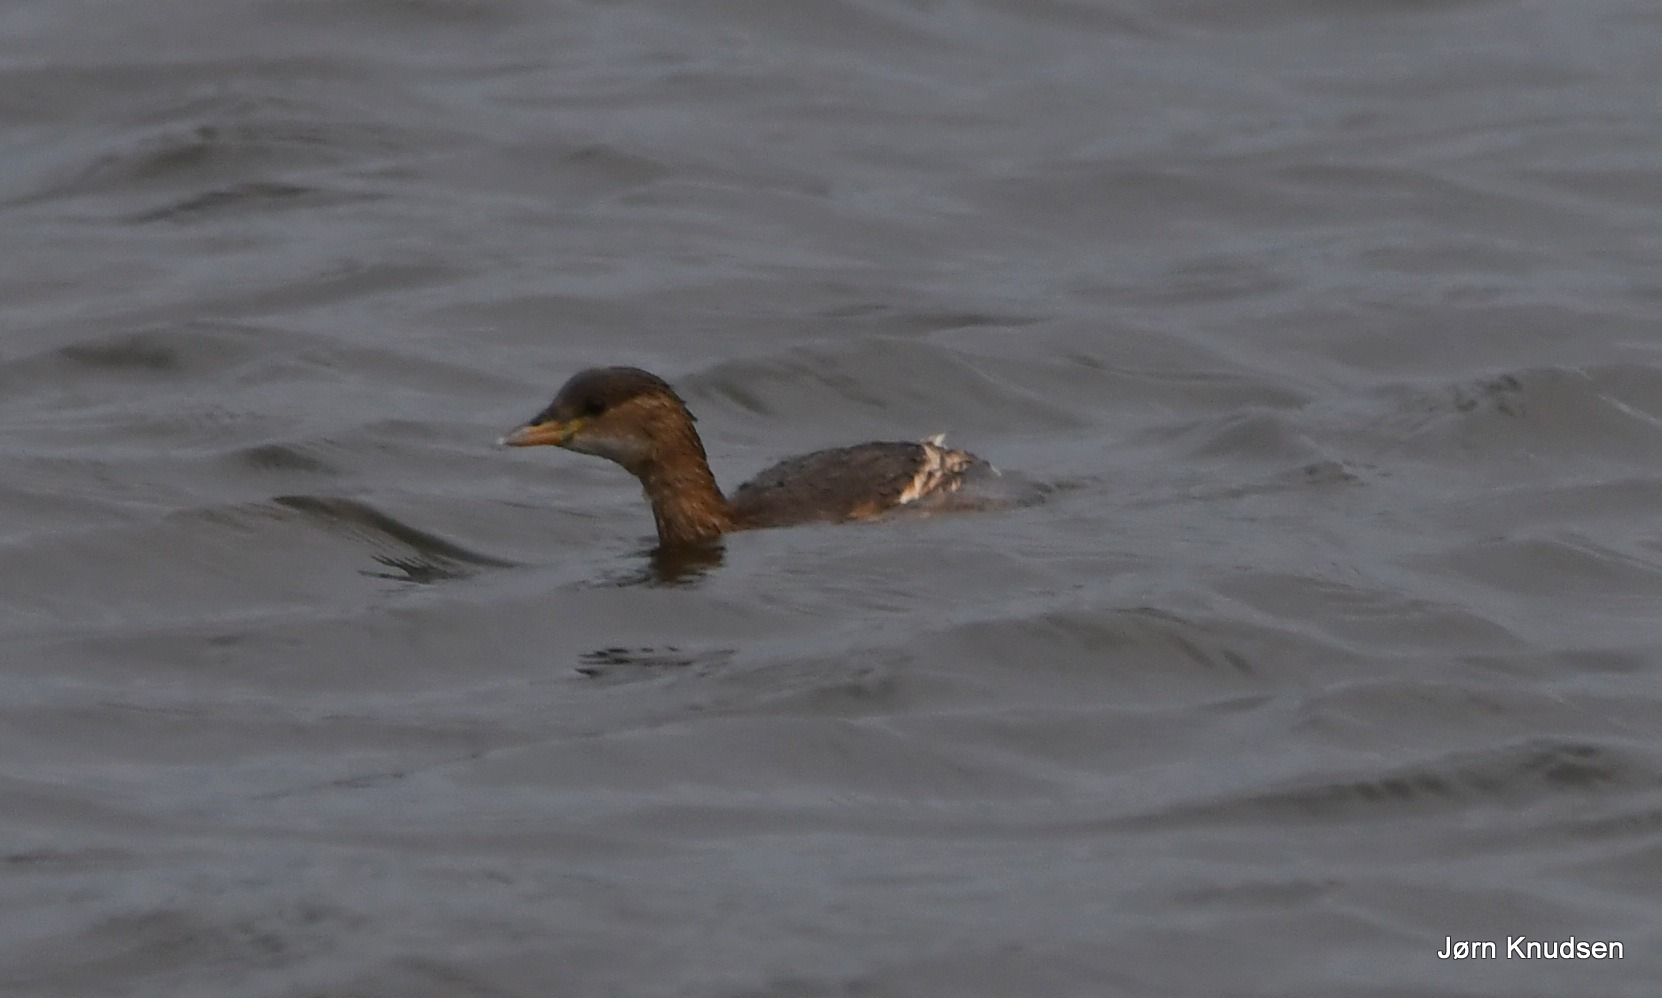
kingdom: Animalia
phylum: Chordata
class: Aves
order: Podicipediformes
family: Podicipedidae
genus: Tachybaptus
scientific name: Tachybaptus ruficollis
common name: Lille lappedykker
